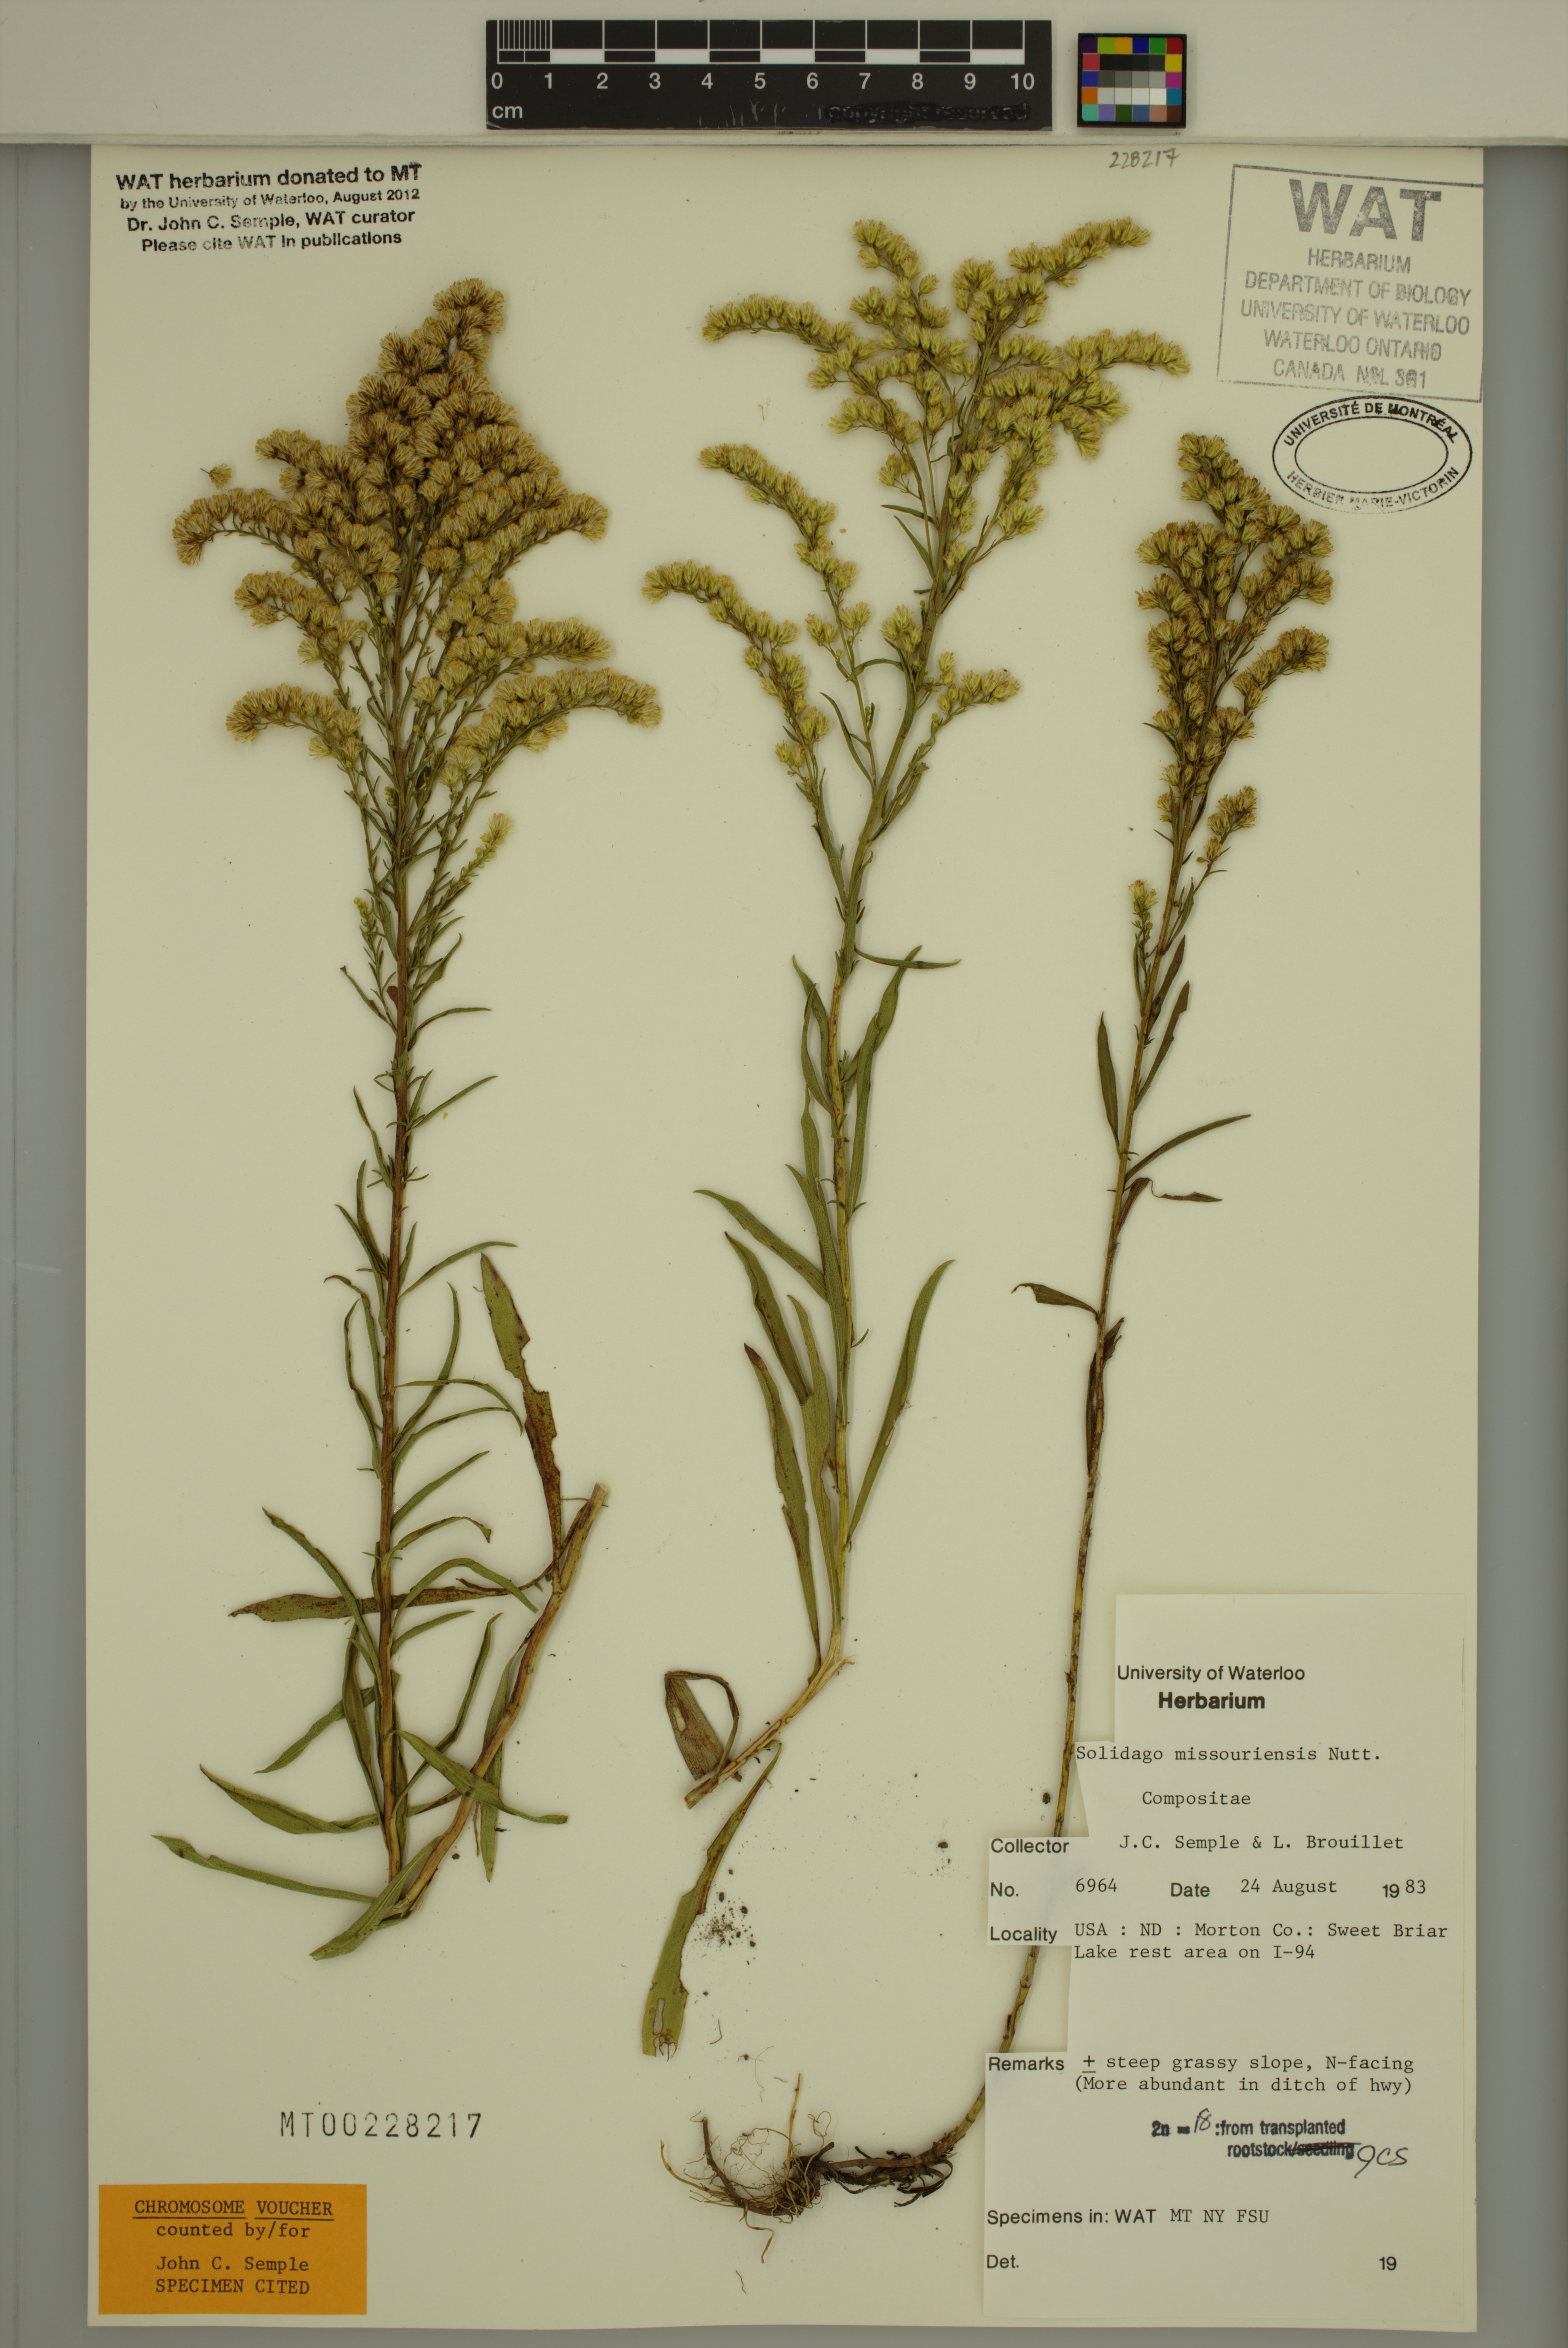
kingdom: Plantae
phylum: Tracheophyta
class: Magnoliopsida
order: Asterales
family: Asteraceae
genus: Solidago
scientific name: Solidago missouriensis
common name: Prairie goldenrod
